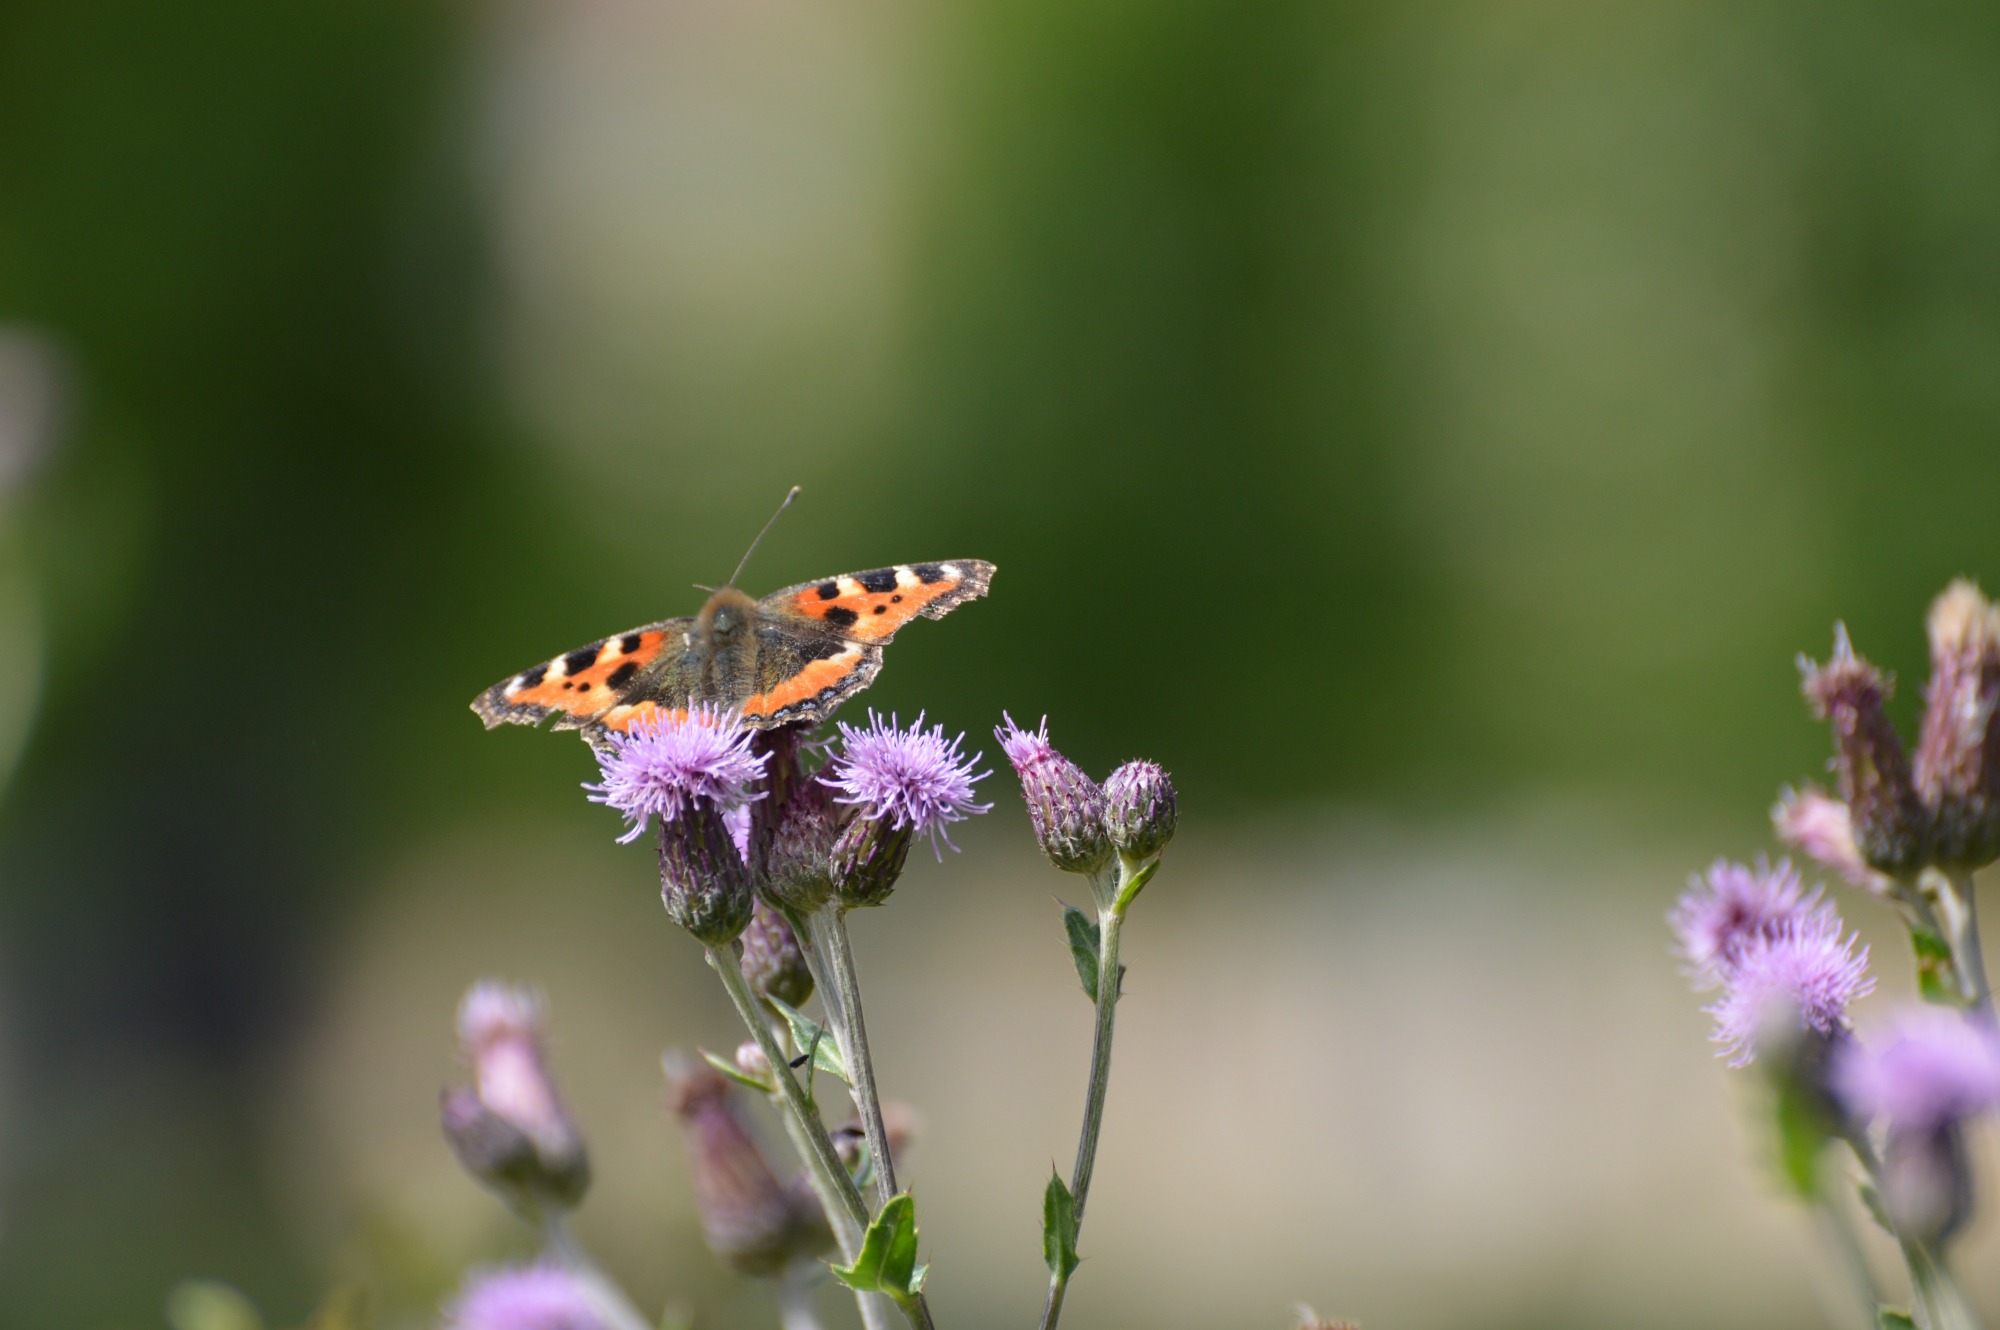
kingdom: Animalia
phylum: Arthropoda
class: Insecta
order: Lepidoptera
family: Nymphalidae
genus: Aglais
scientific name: Aglais urticae
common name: Nældens takvinge
